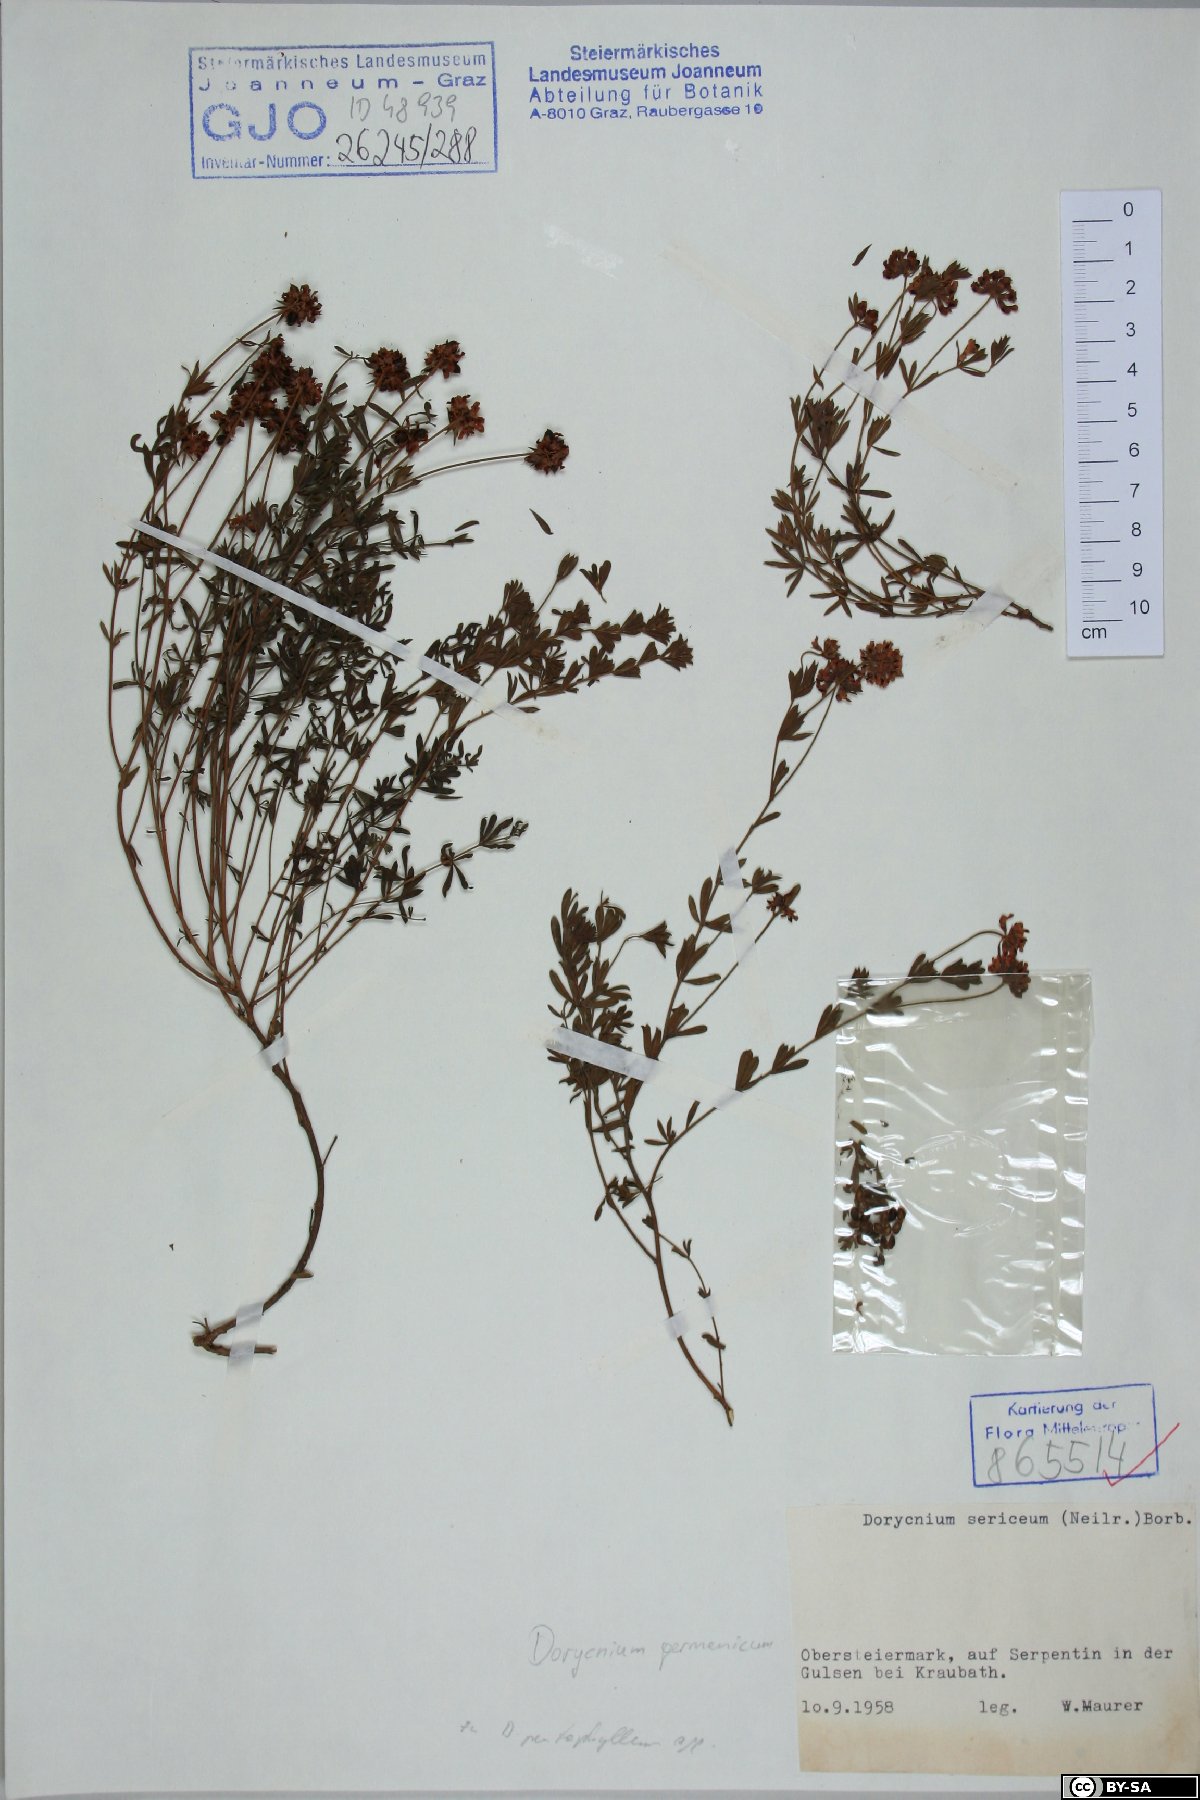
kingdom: Plantae
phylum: Tracheophyta
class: Magnoliopsida
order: Fabales
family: Fabaceae
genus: Lotus
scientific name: Lotus germanicus
